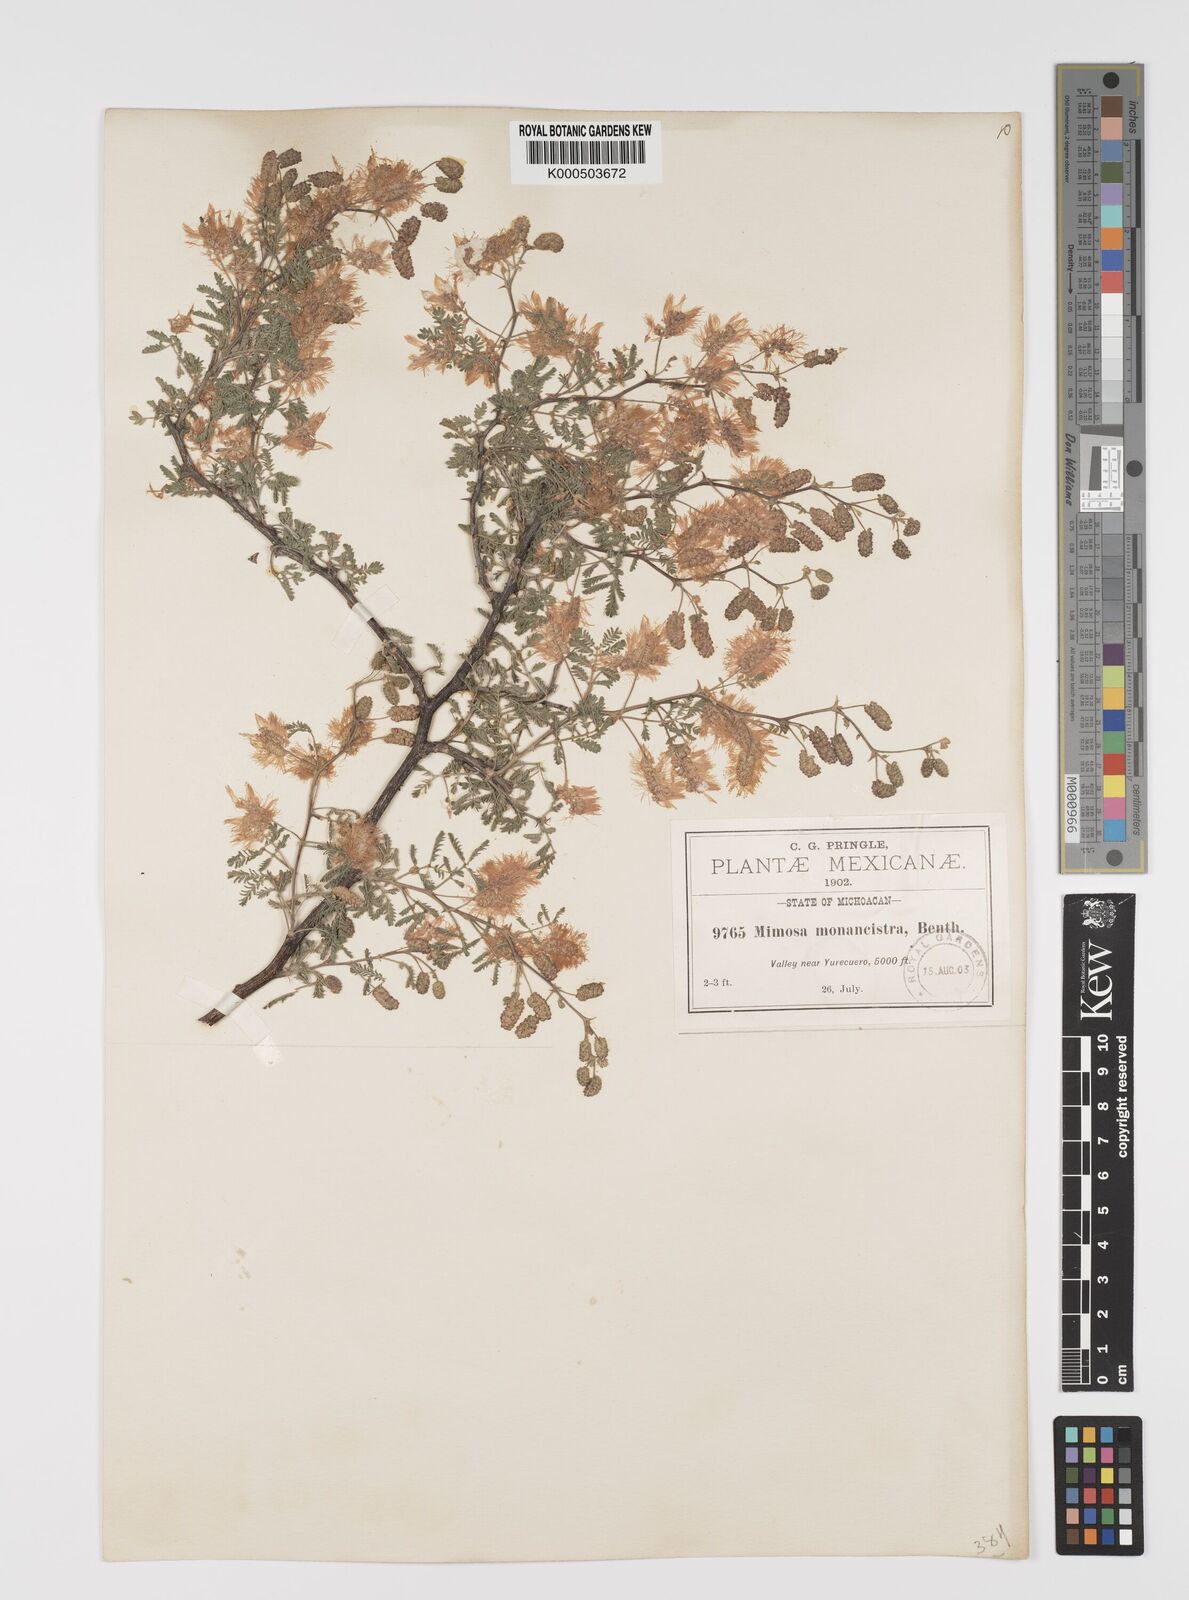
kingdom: Plantae
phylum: Tracheophyta
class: Magnoliopsida
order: Fabales
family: Fabaceae
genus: Mimosa
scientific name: Mimosa monancistra
